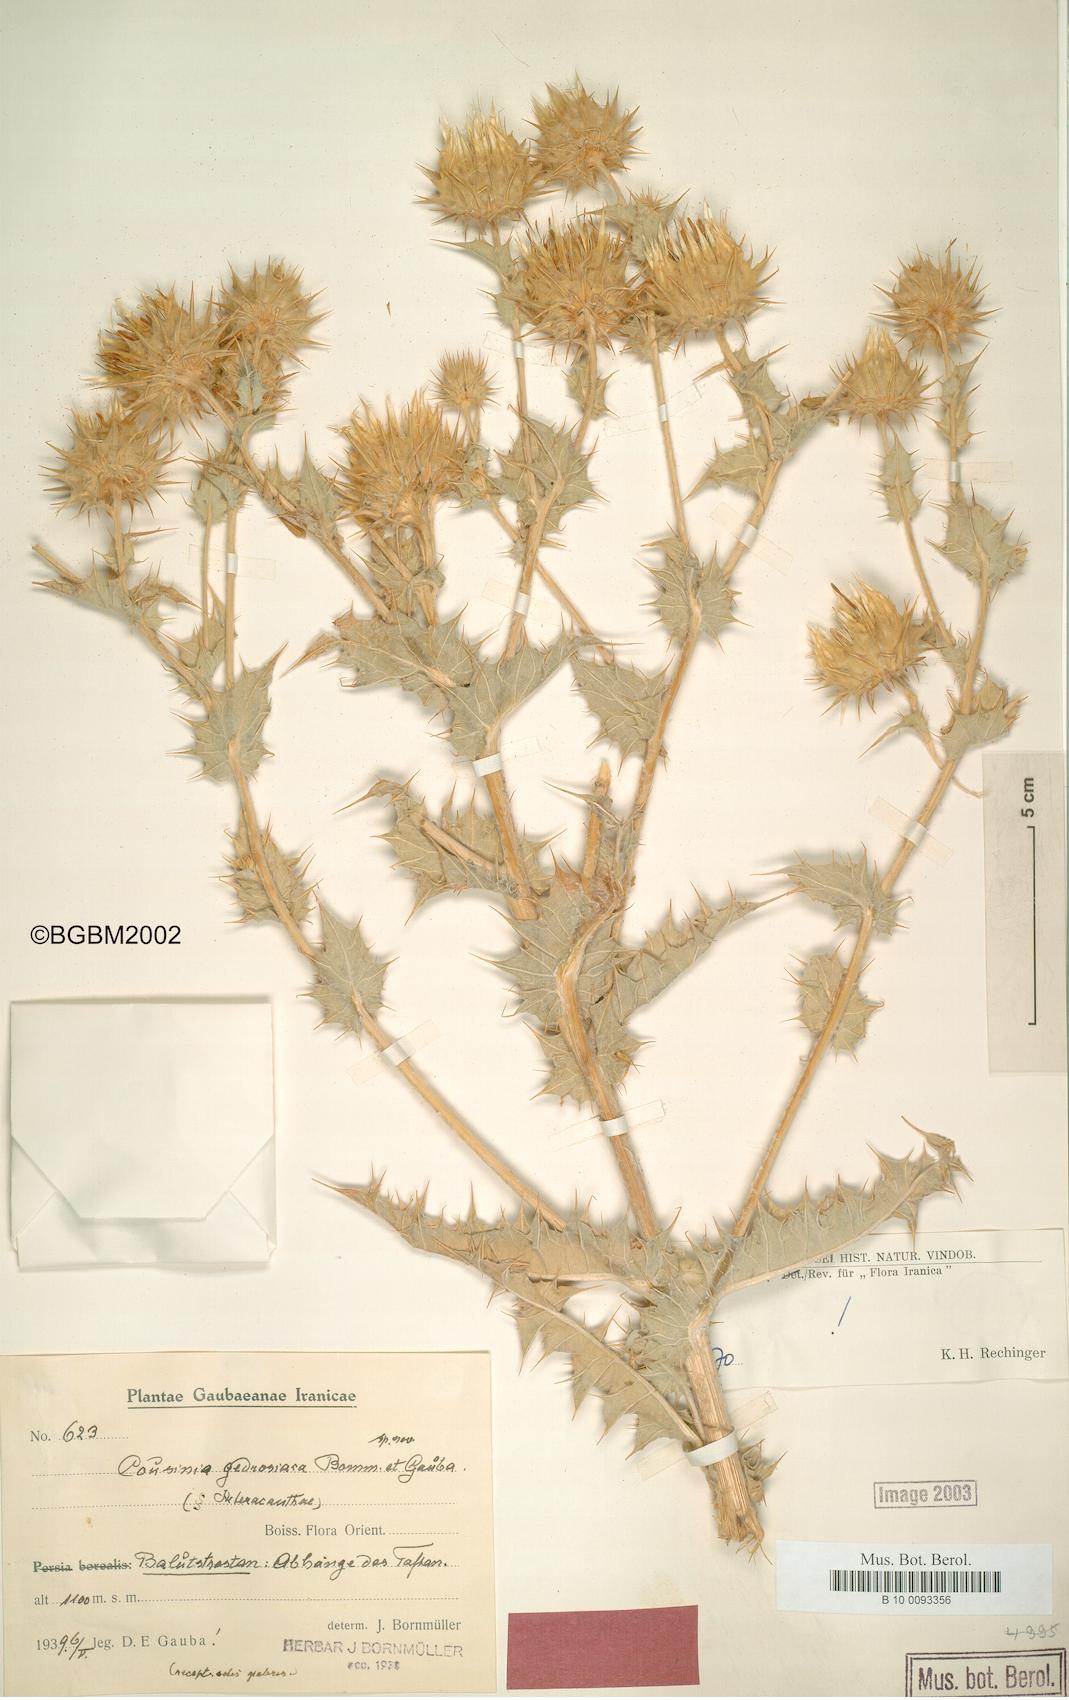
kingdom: Plantae
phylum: Tracheophyta
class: Magnoliopsida
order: Asterales
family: Asteraceae
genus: Cousinia
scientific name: Cousinia gedrosiaca
